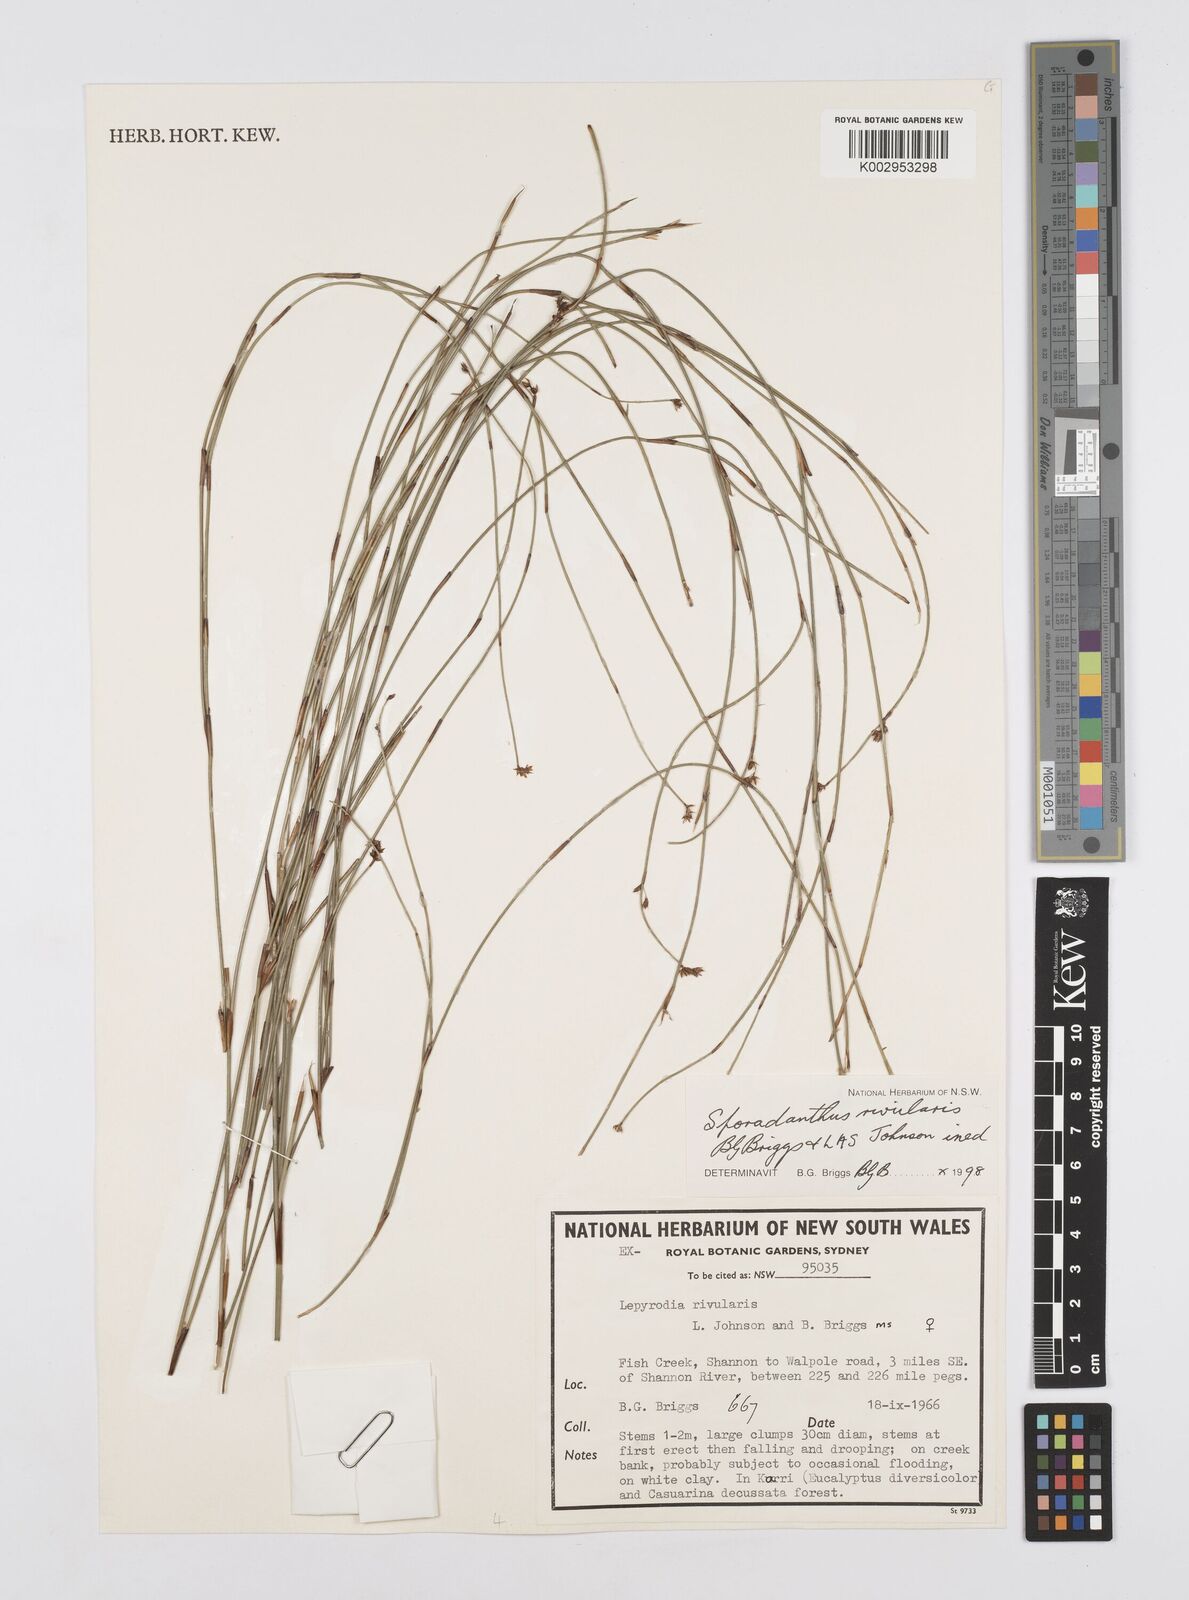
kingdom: Plantae
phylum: Tracheophyta
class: Liliopsida
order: Poales
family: Restionaceae
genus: Sporadanthus
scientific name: Sporadanthus rivularis
